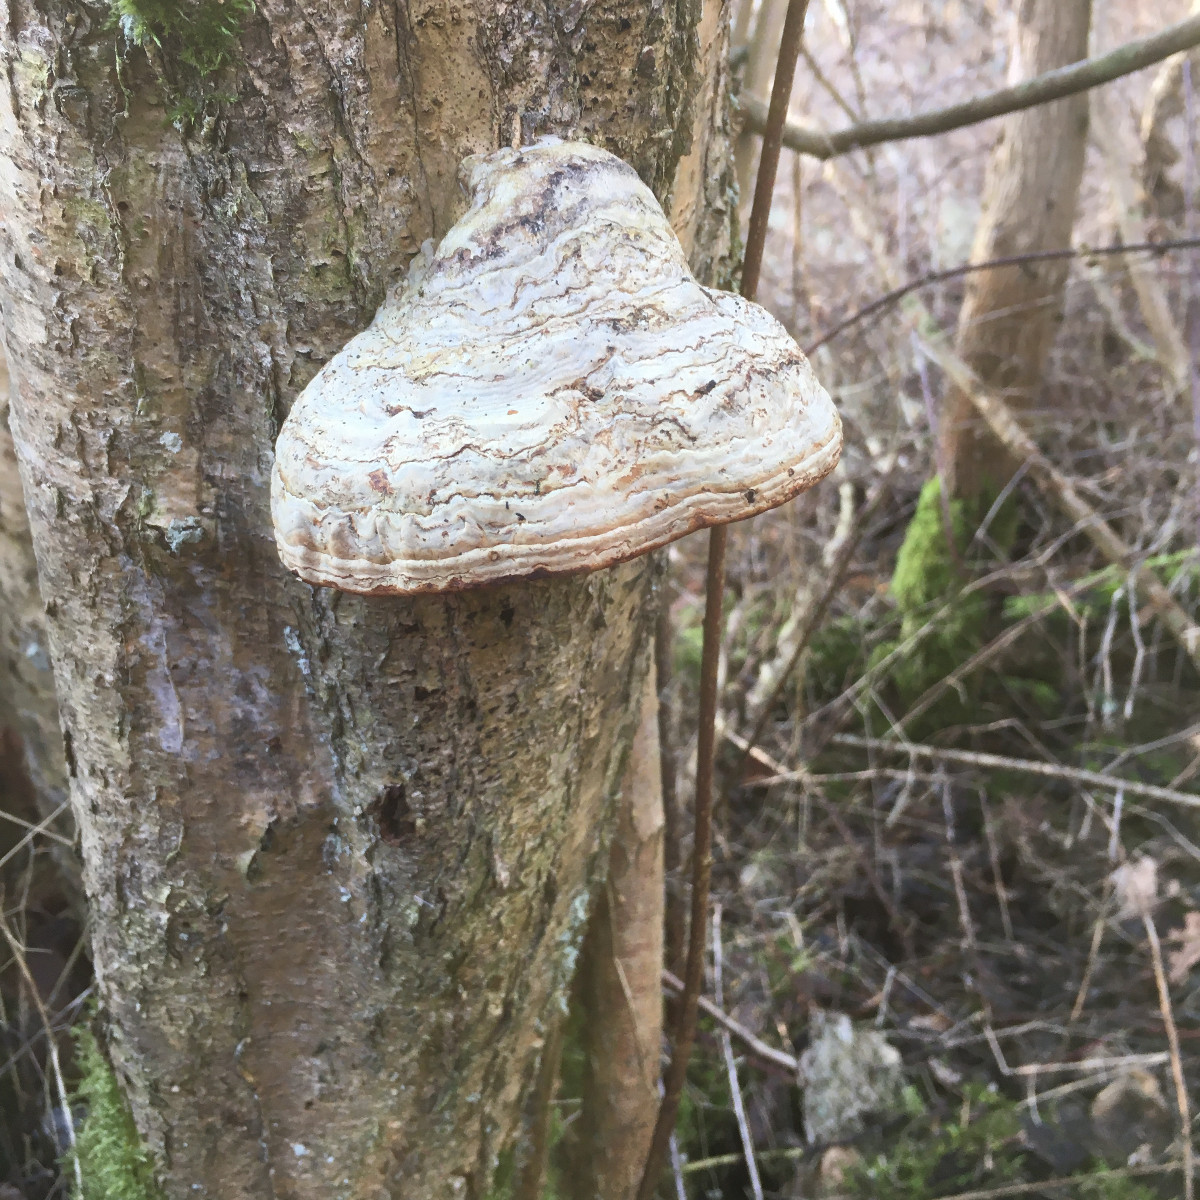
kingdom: Fungi
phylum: Basidiomycota
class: Agaricomycetes
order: Polyporales
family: Polyporaceae
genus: Fomes
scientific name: Fomes fomentarius
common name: tøndersvamp
